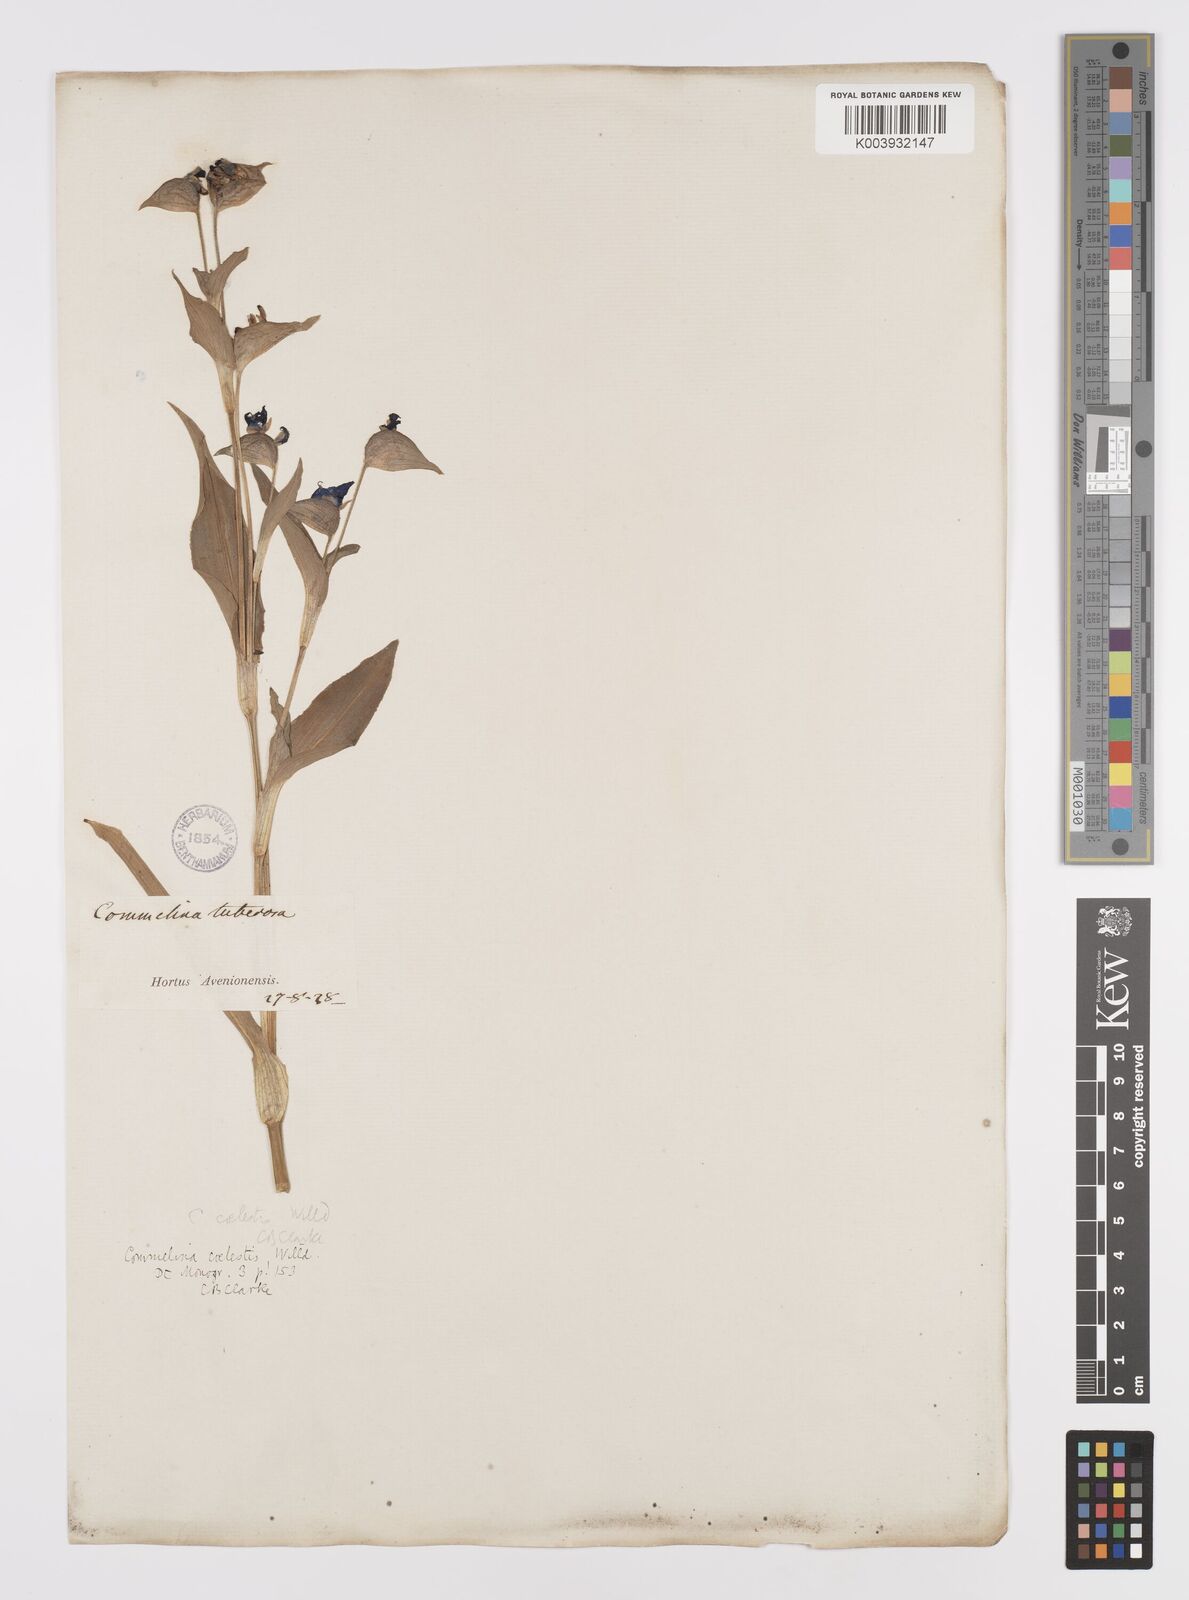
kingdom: Plantae
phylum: Tracheophyta
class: Liliopsida
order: Commelinales
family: Commelinaceae
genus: Commelina
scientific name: Commelina tuberosa
